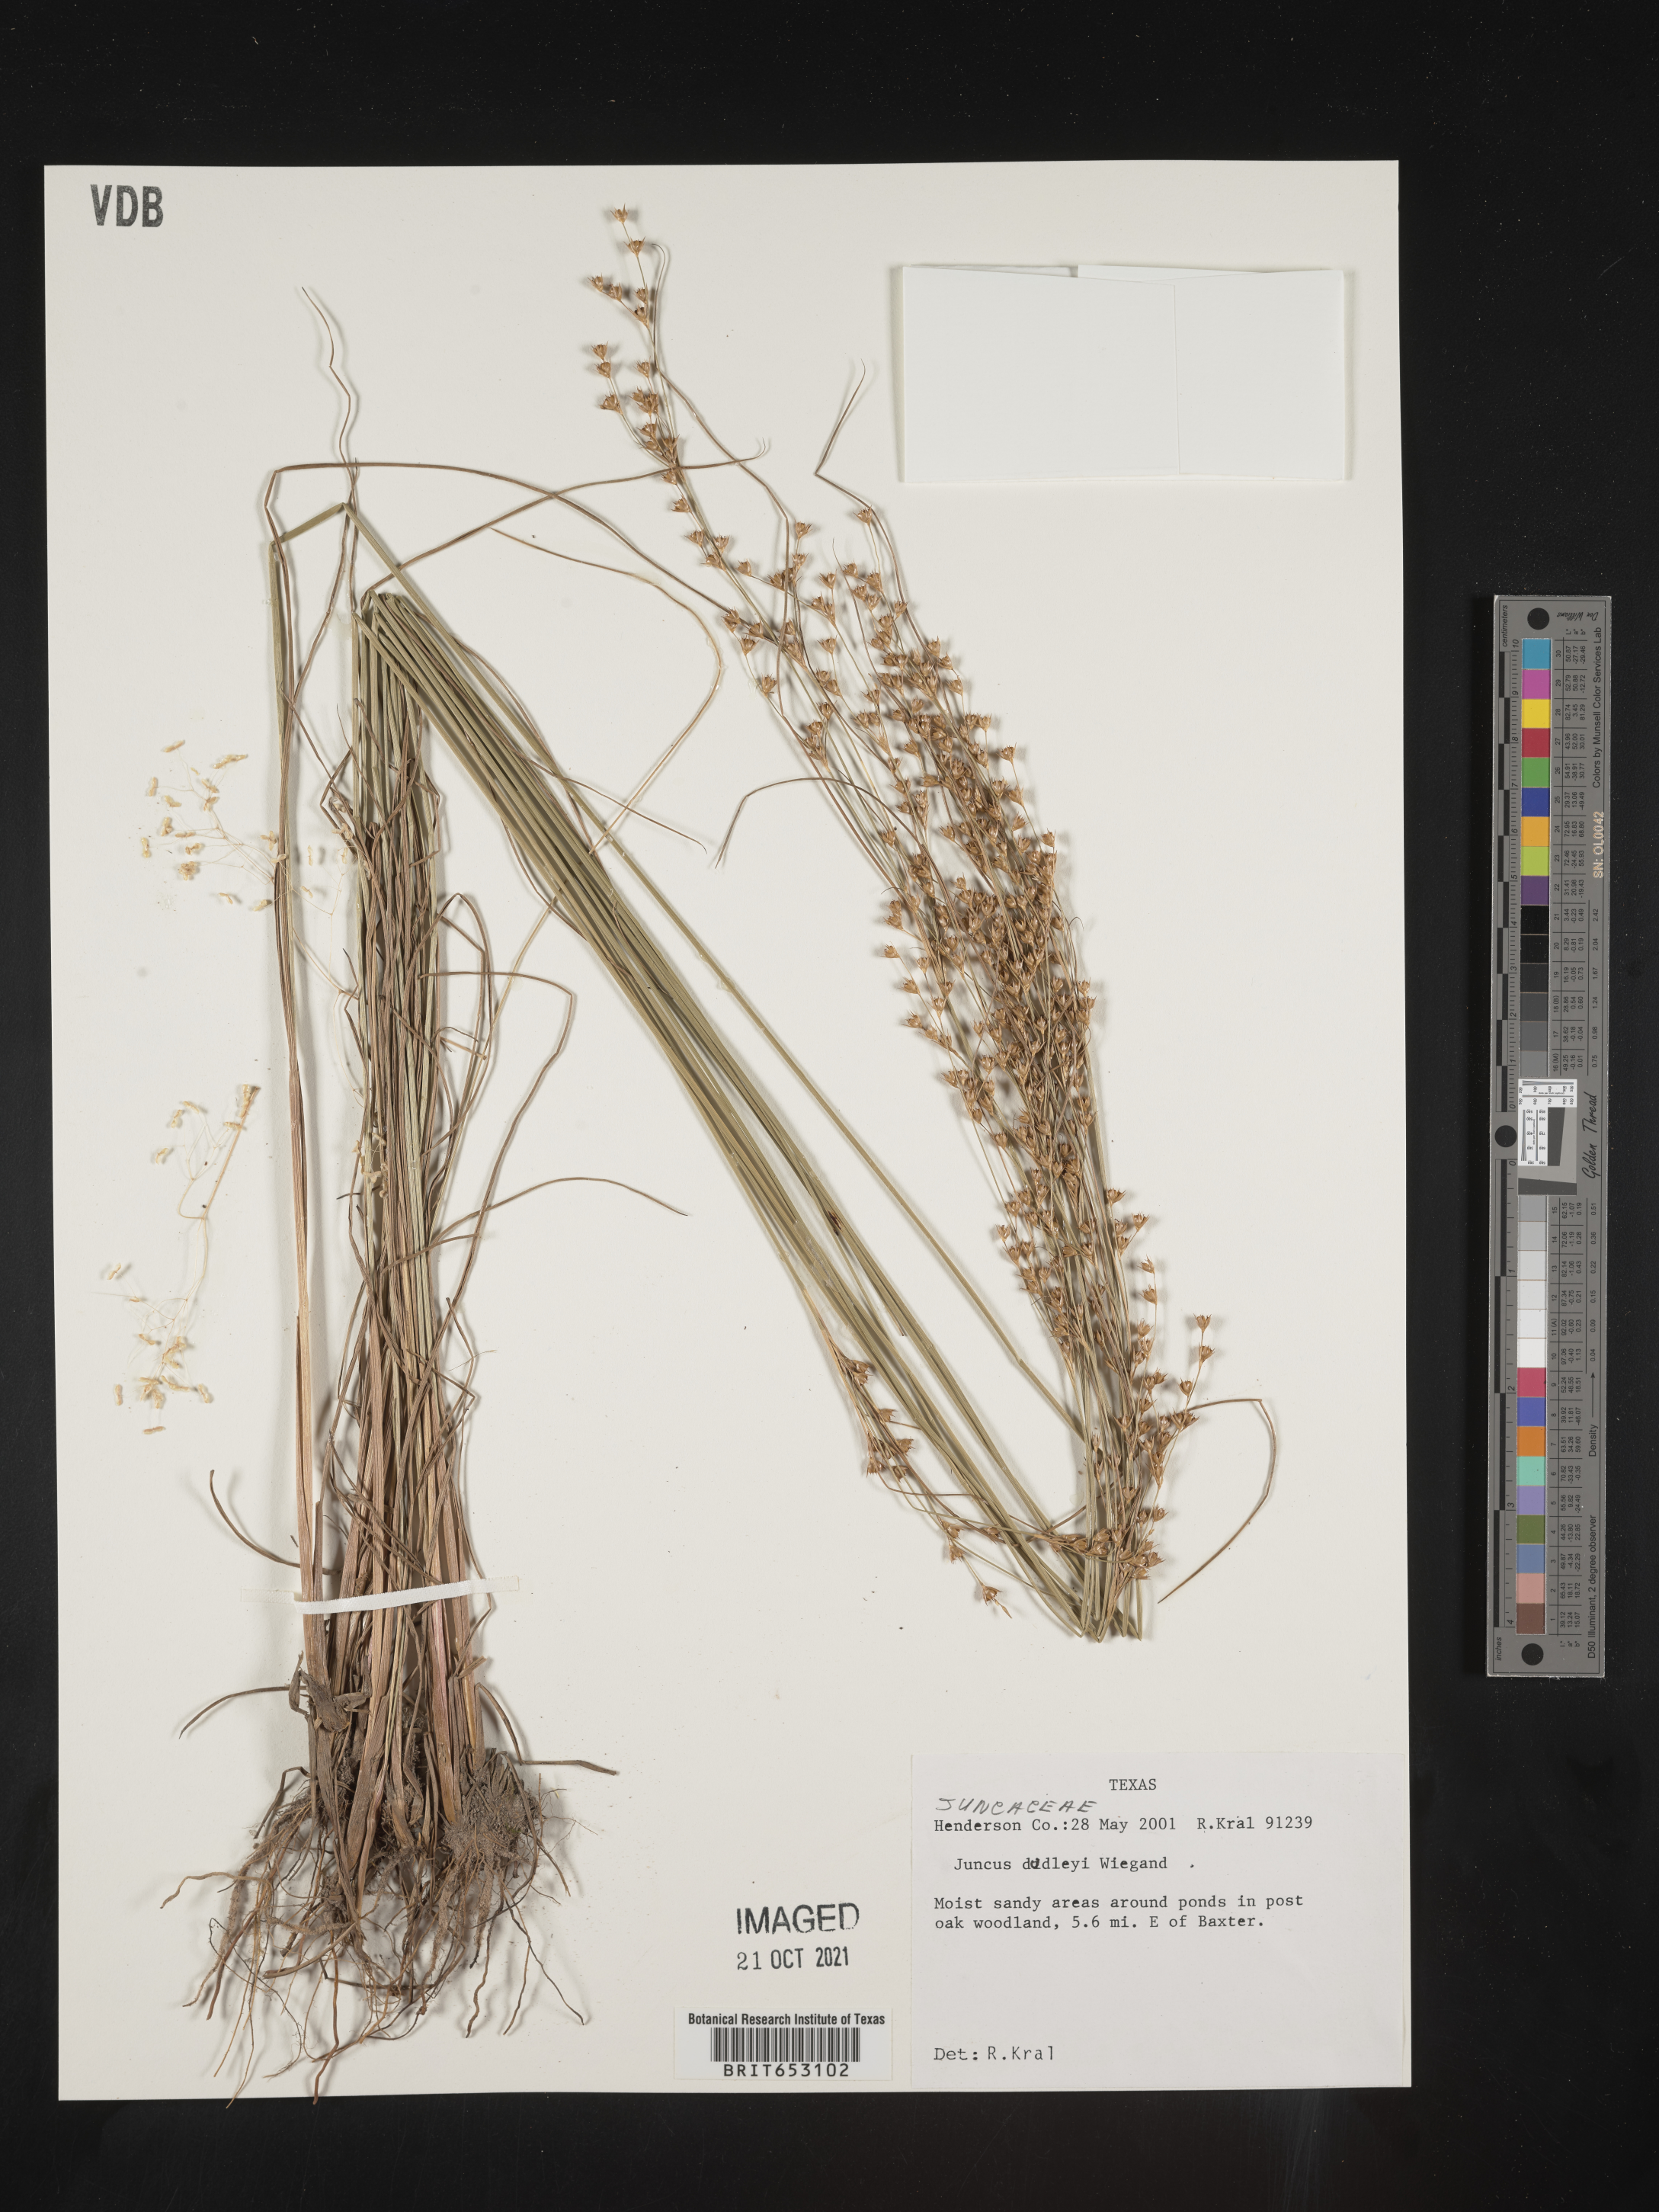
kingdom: Plantae
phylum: Tracheophyta
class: Liliopsida
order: Poales
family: Juncaceae
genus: Juncus
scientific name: Juncus dudleyi
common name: Dudley's rush
